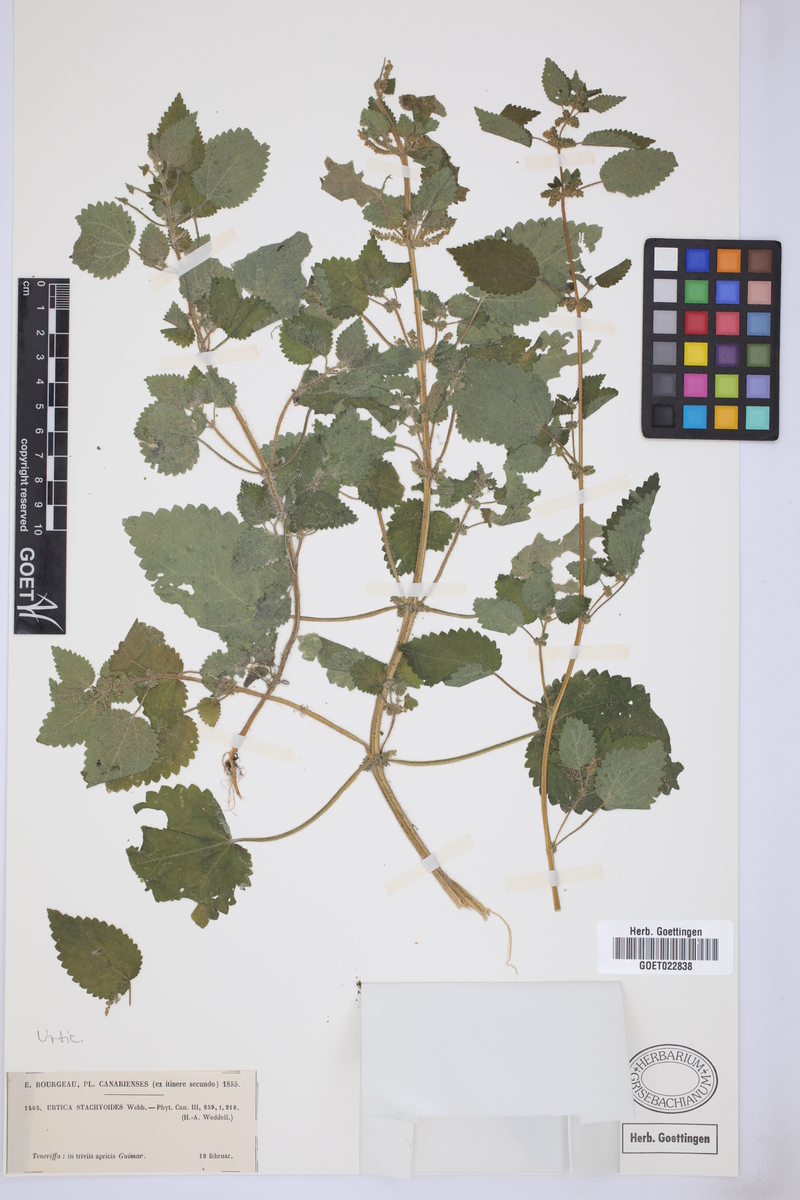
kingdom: Plantae
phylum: Tracheophyta
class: Magnoliopsida
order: Rosales
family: Urticaceae
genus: Urtica
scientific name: Urtica stachyoides
